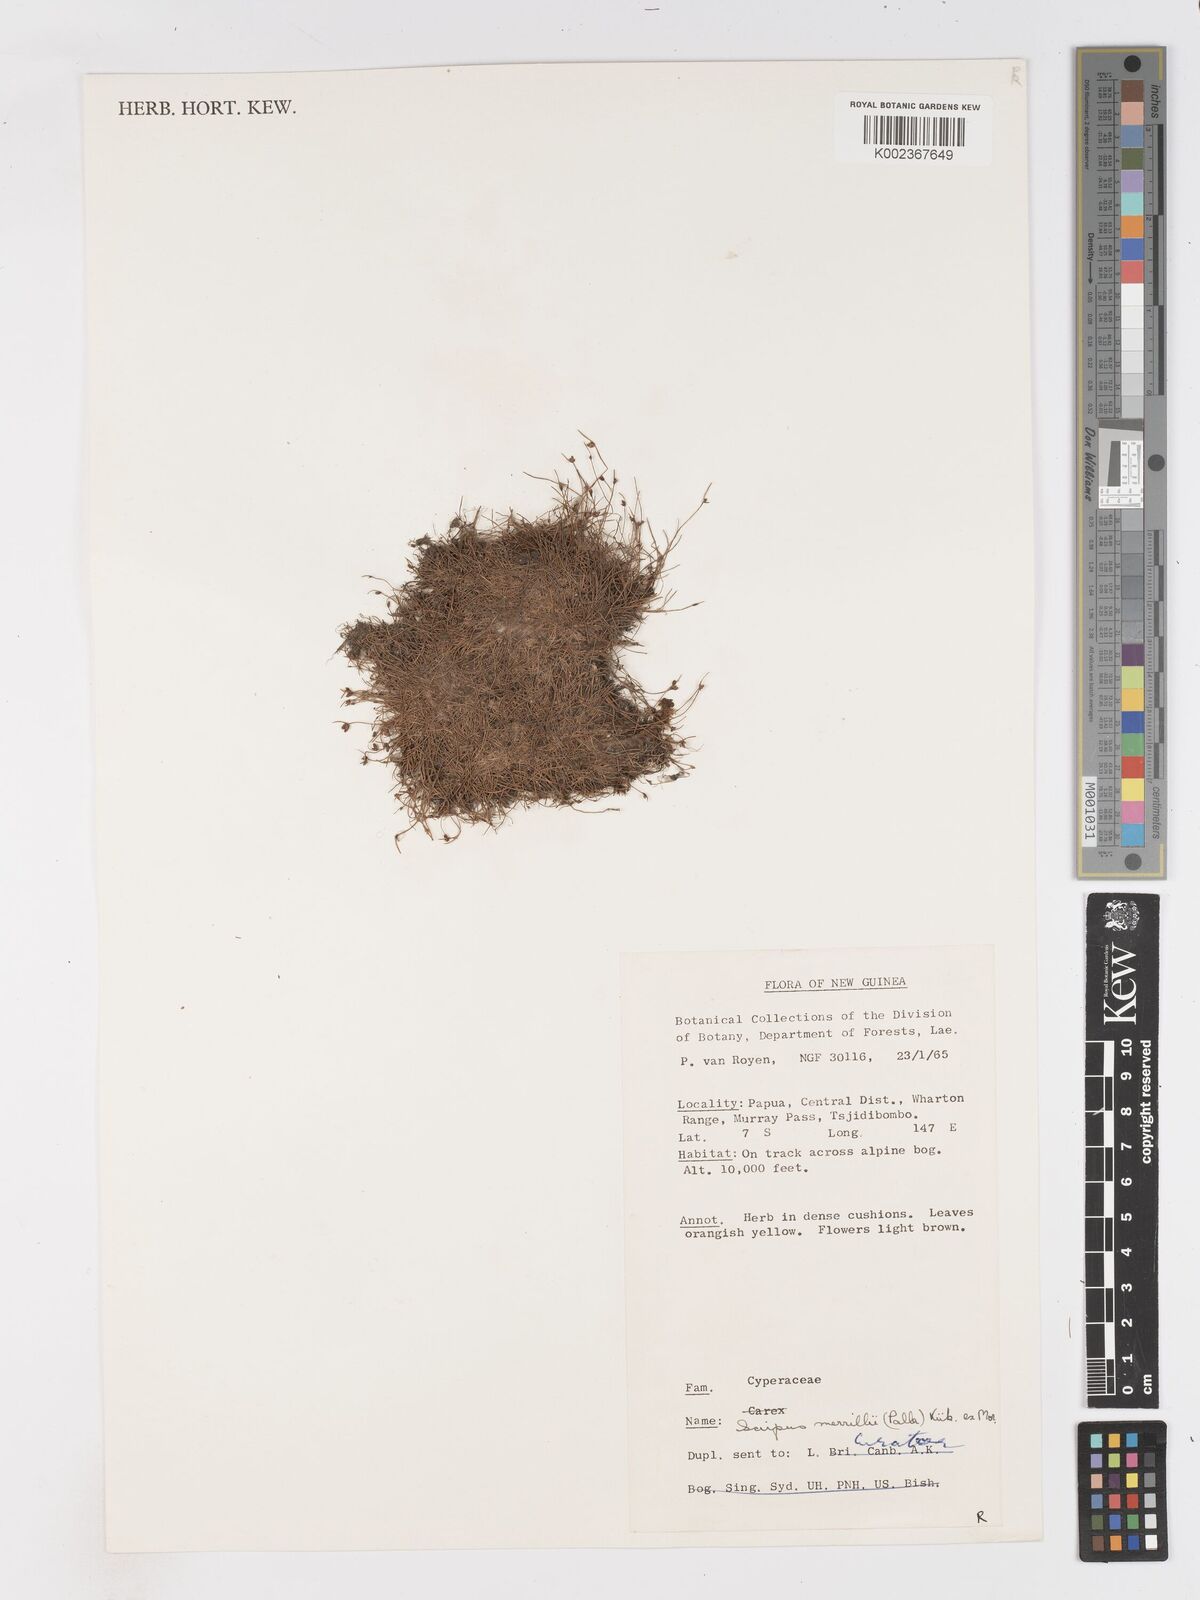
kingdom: Plantae
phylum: Tracheophyta
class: Liliopsida
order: Poales
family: Cyperaceae
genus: Isolepis
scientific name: Isolepis subtilissima
